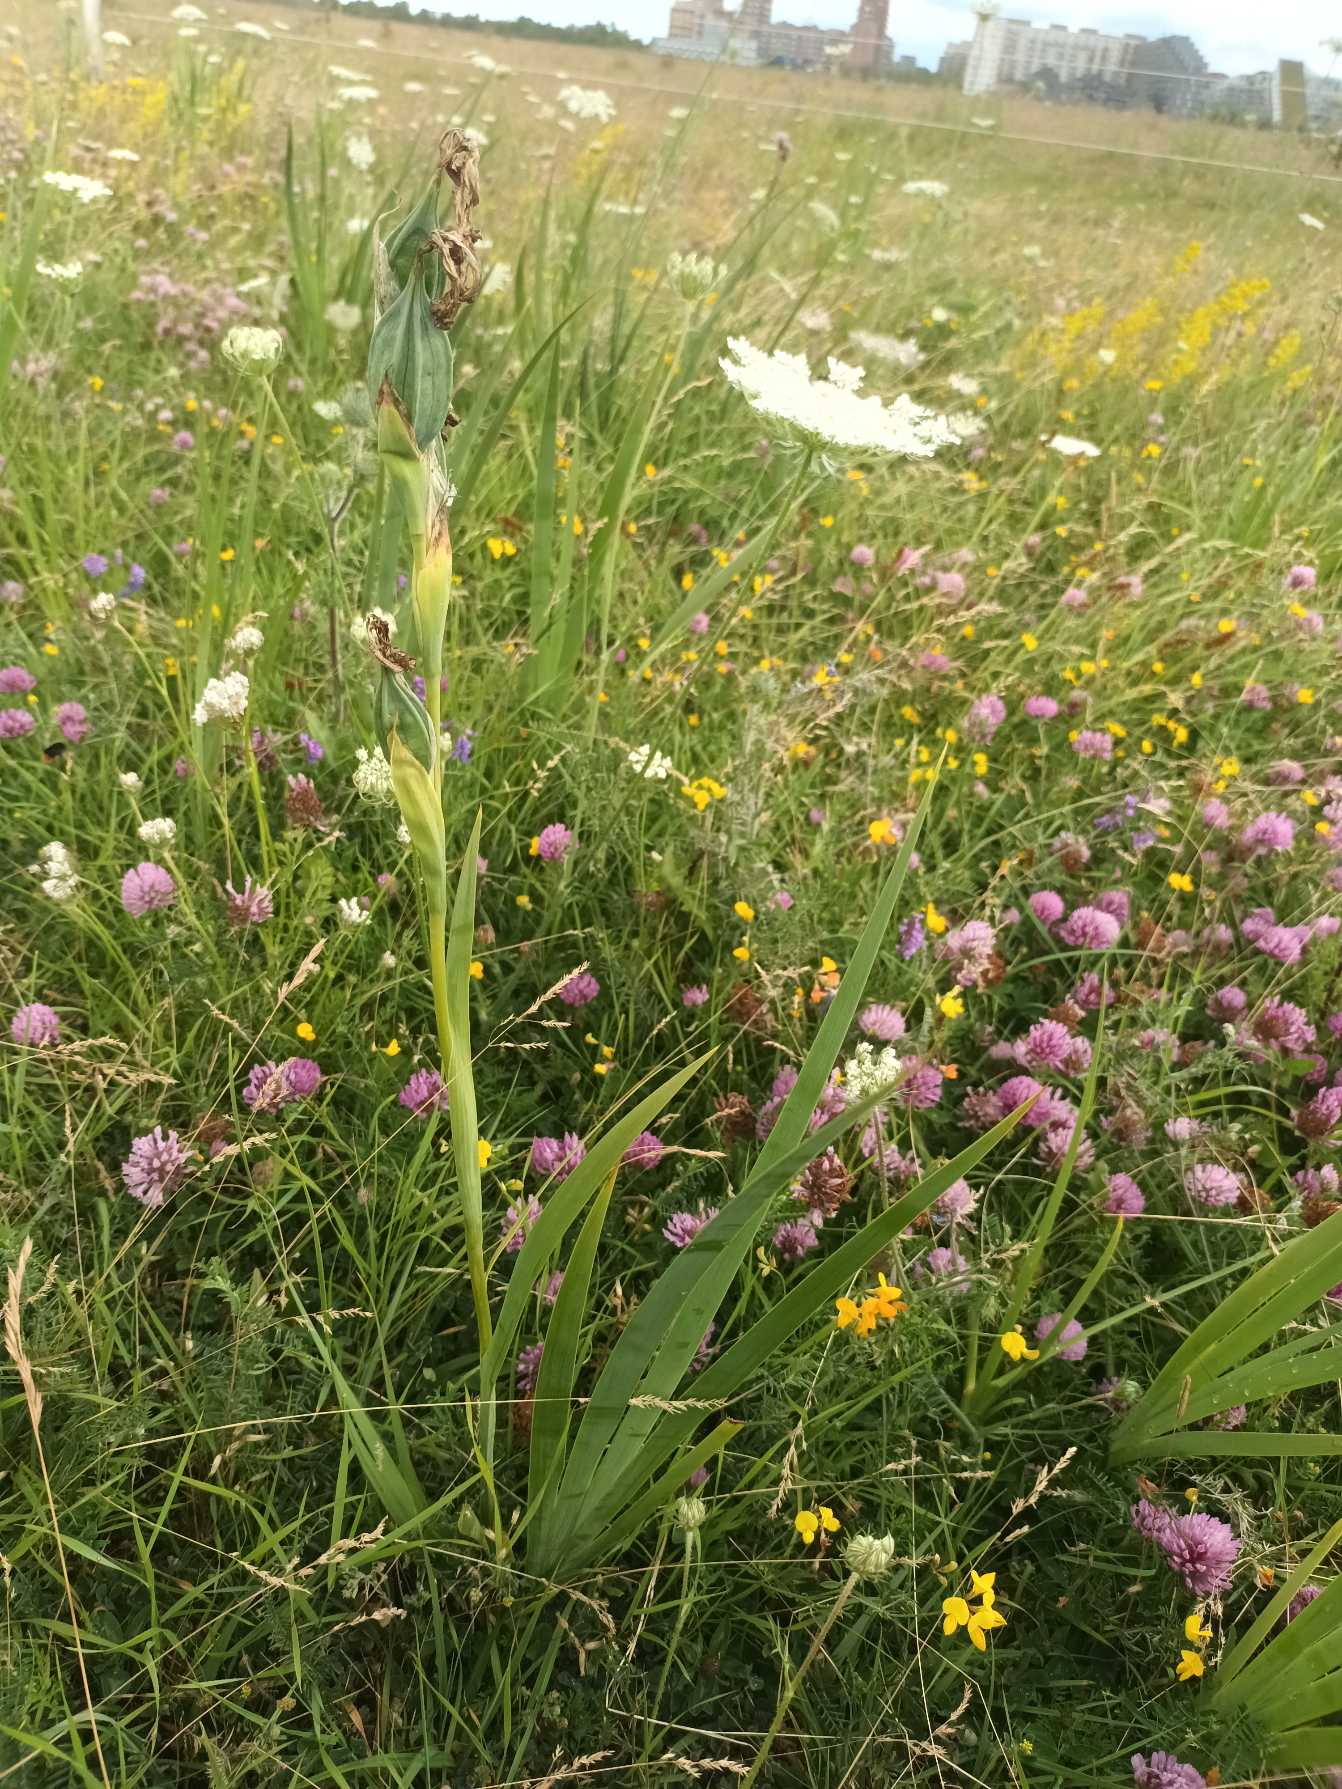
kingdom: Plantae
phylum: Tracheophyta
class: Liliopsida
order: Asparagales
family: Iridaceae
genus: Iris
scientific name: Iris spuria
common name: Blå iris
